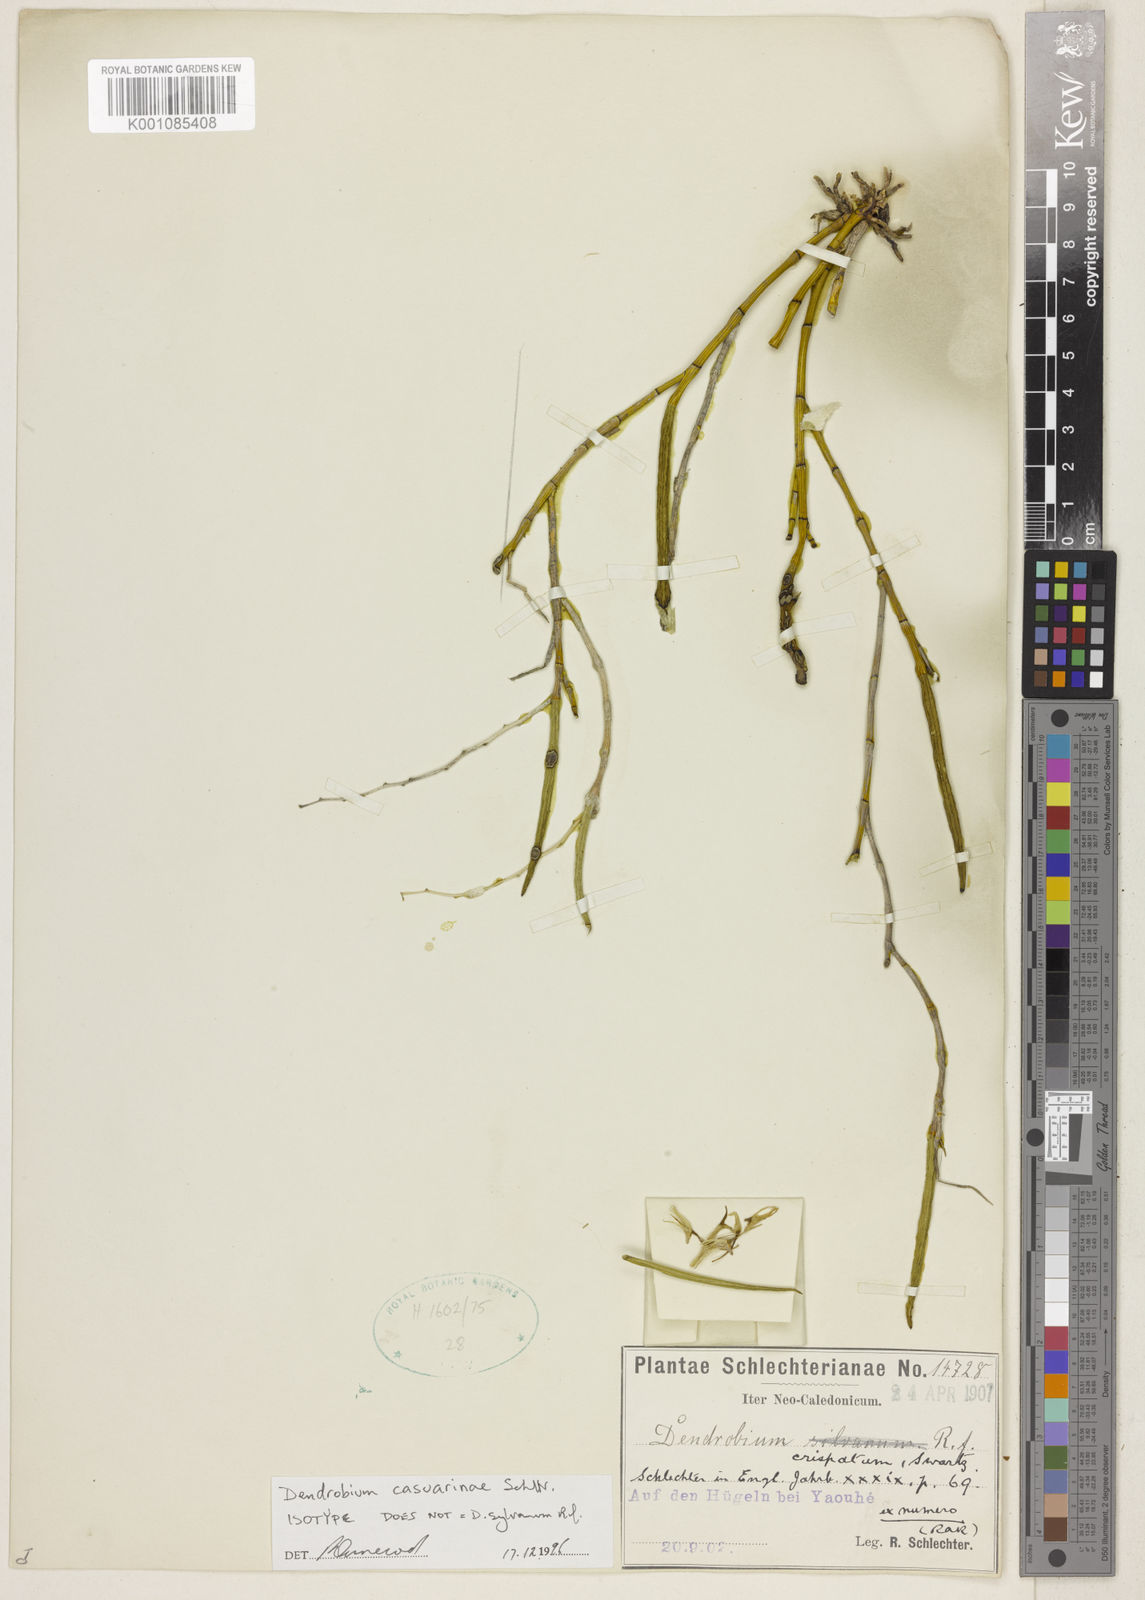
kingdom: Plantae
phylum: Tracheophyta
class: Liliopsida
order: Asparagales
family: Orchidaceae
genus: Dendrobium
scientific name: Dendrobium sylvanum
